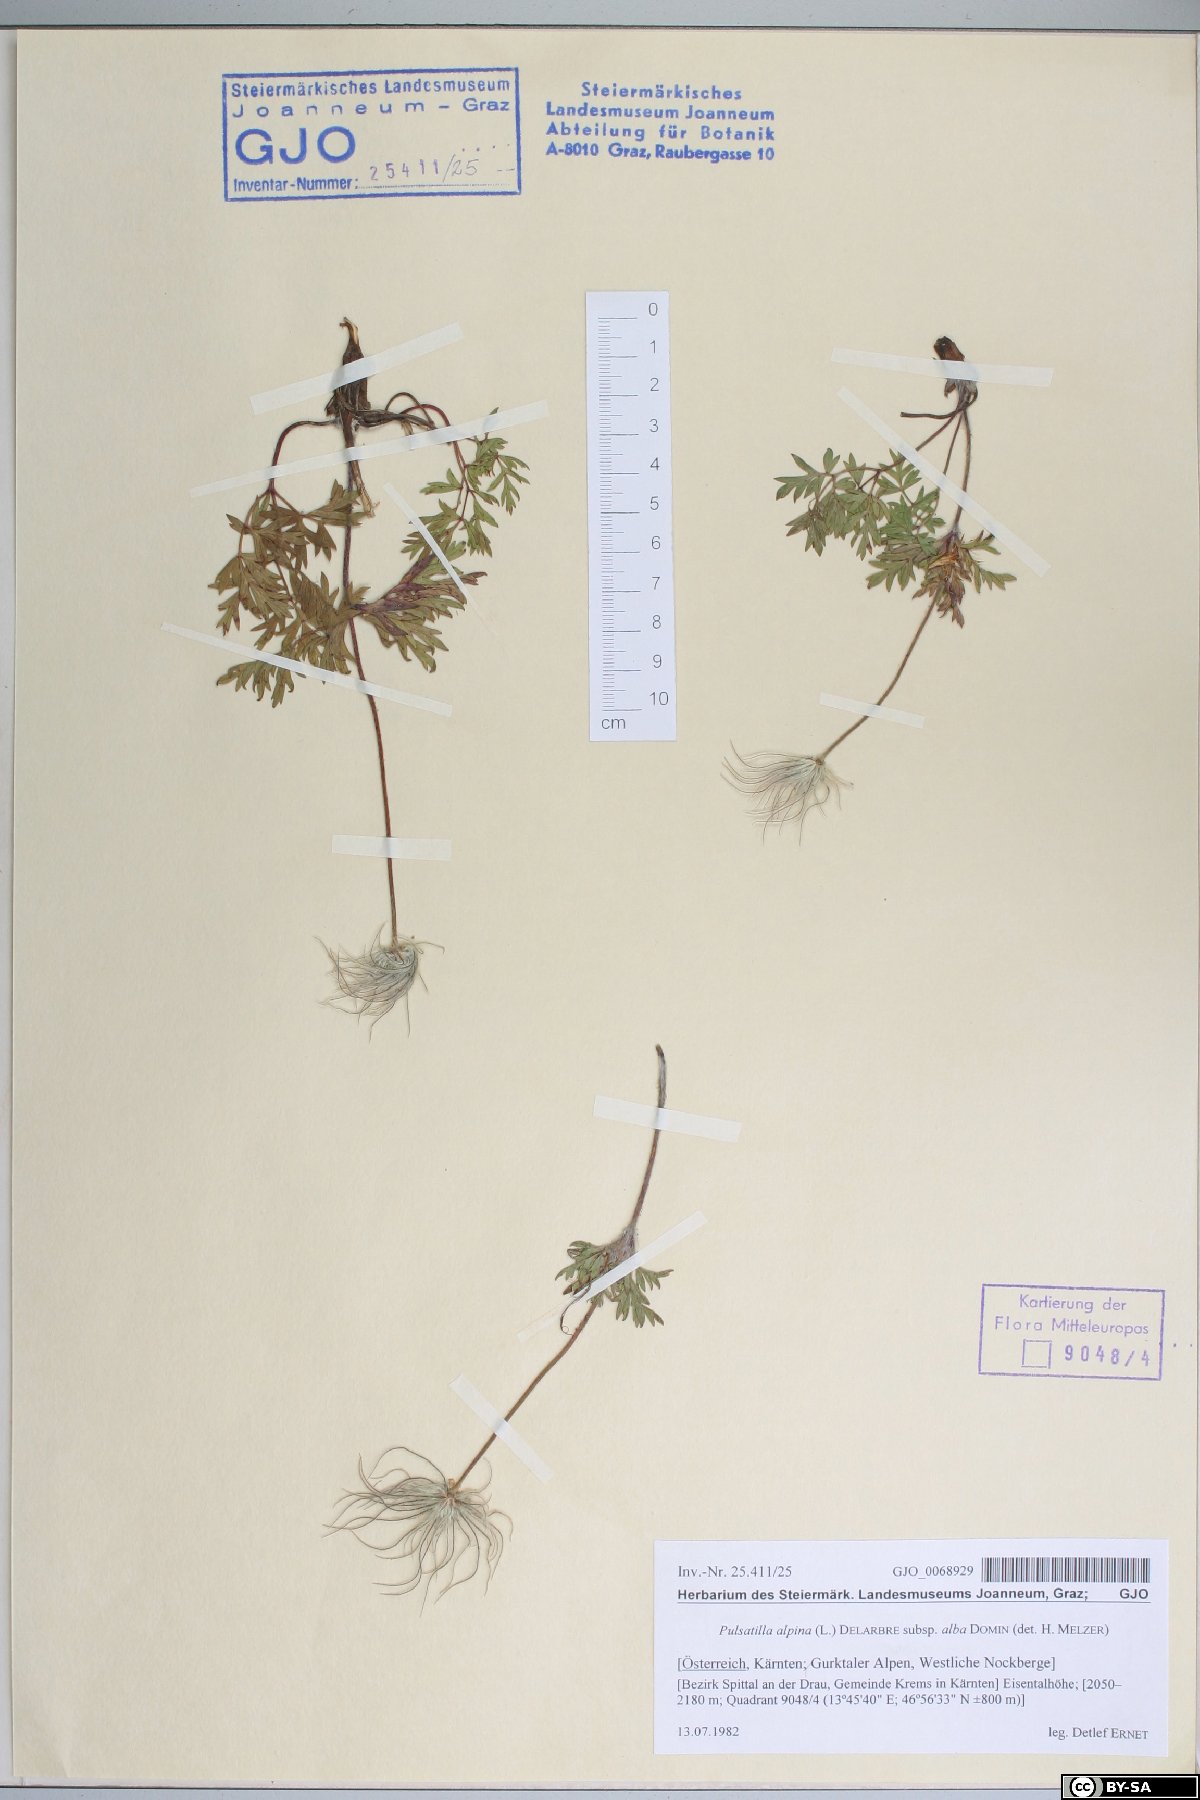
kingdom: Plantae
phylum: Tracheophyta
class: Magnoliopsida
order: Ranunculales
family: Ranunculaceae
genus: Pulsatilla
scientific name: Pulsatilla alpina
